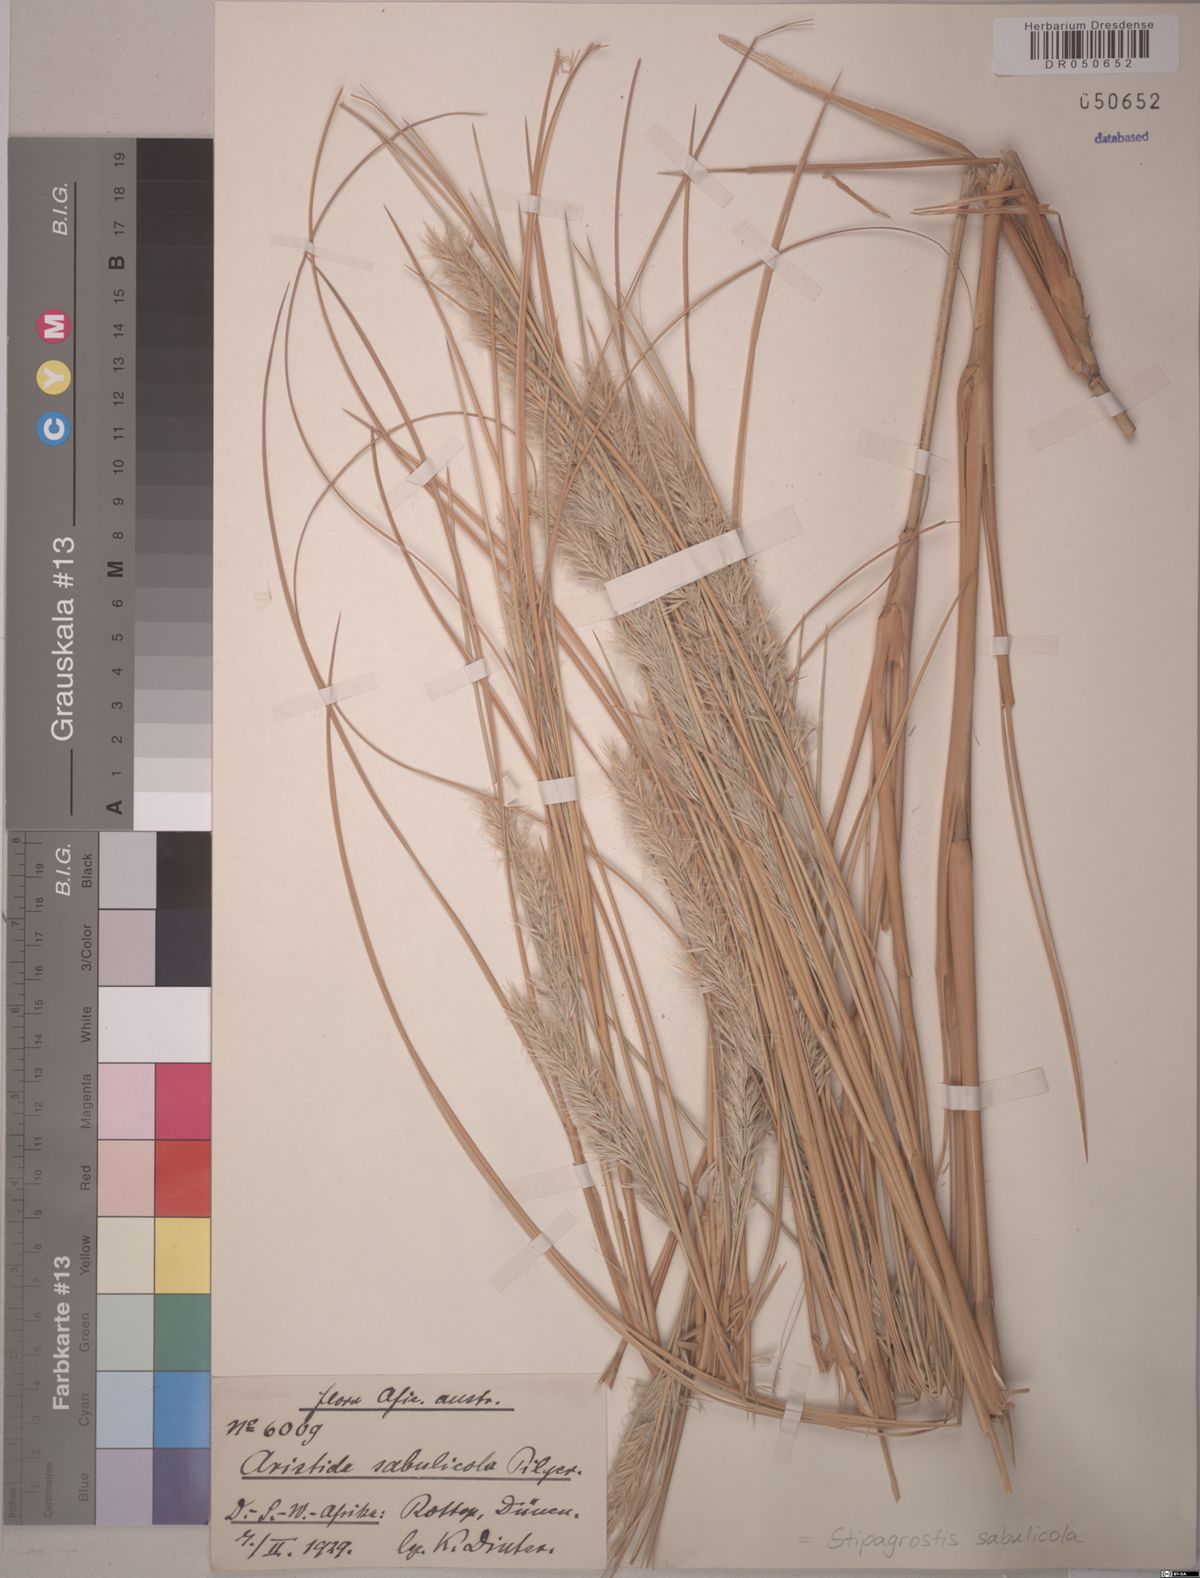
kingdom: Plantae
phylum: Tracheophyta
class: Liliopsida
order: Poales
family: Poaceae
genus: Stipagrostis
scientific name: Stipagrostis sabulicola
